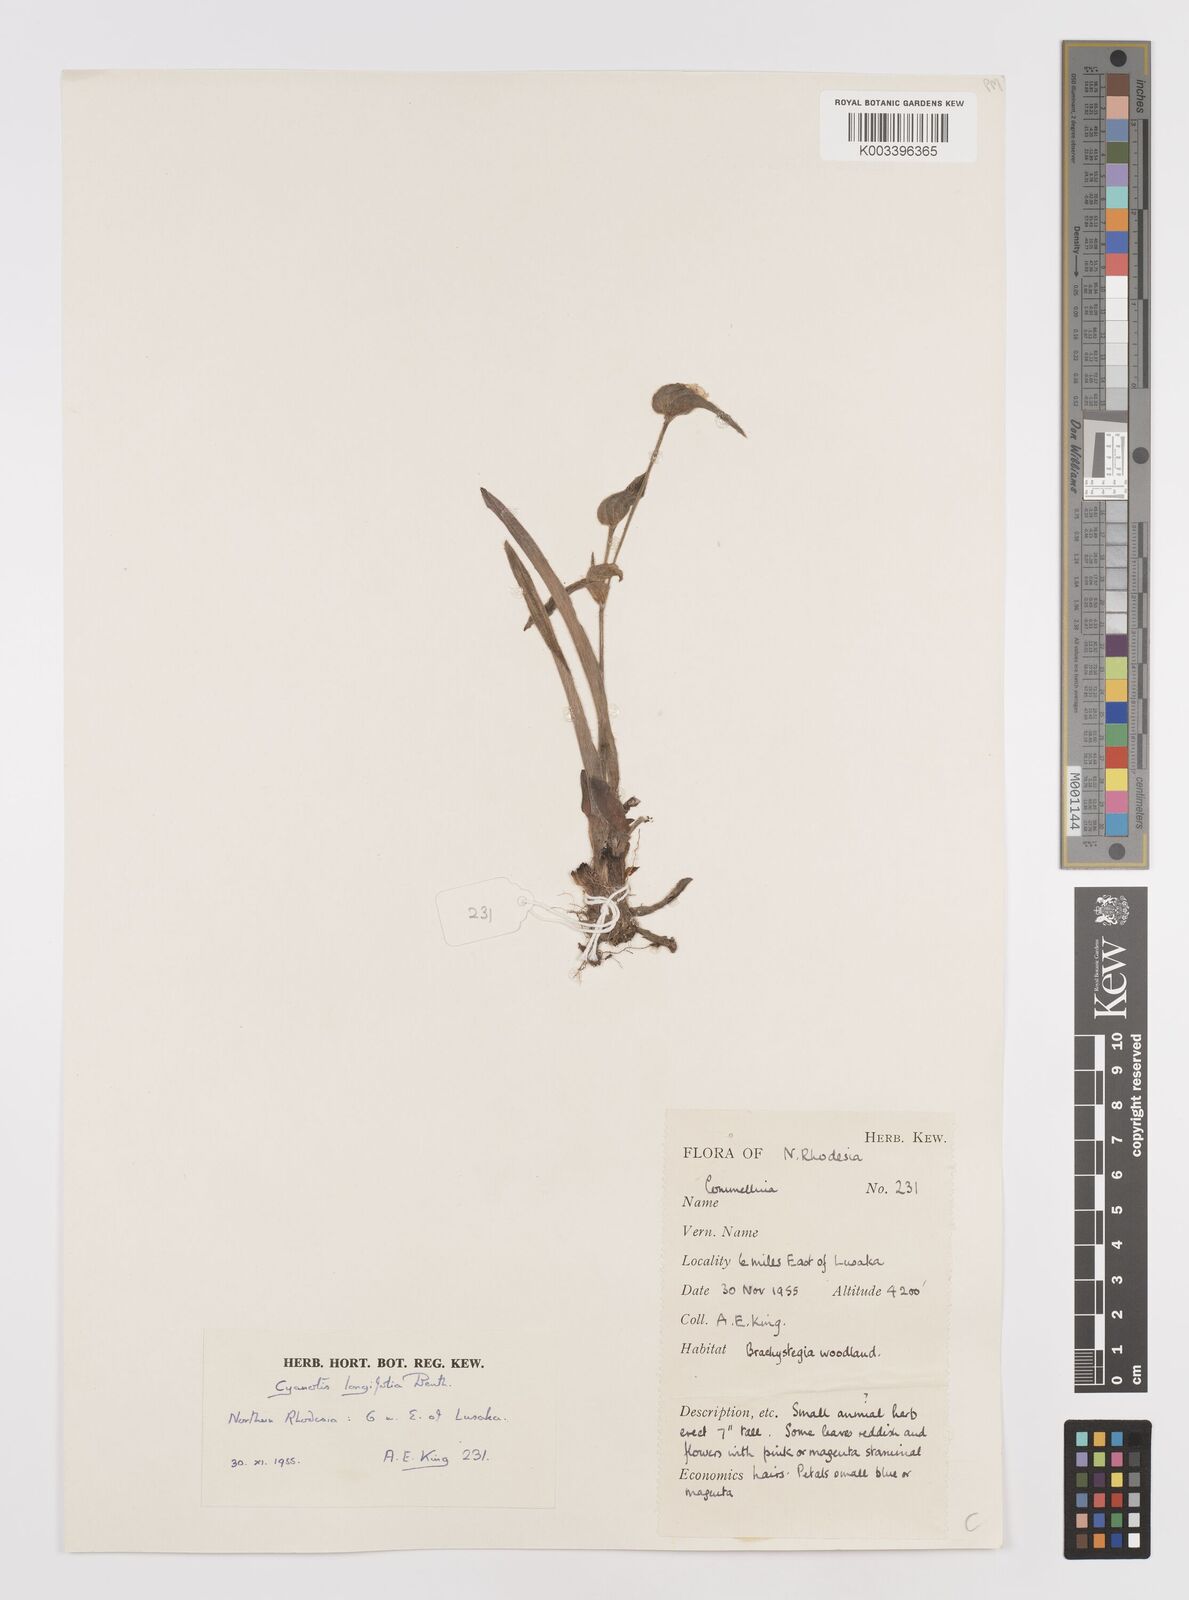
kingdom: Plantae
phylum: Tracheophyta
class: Liliopsida
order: Commelinales
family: Commelinaceae
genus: Cyanotis
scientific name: Cyanotis longifolia
